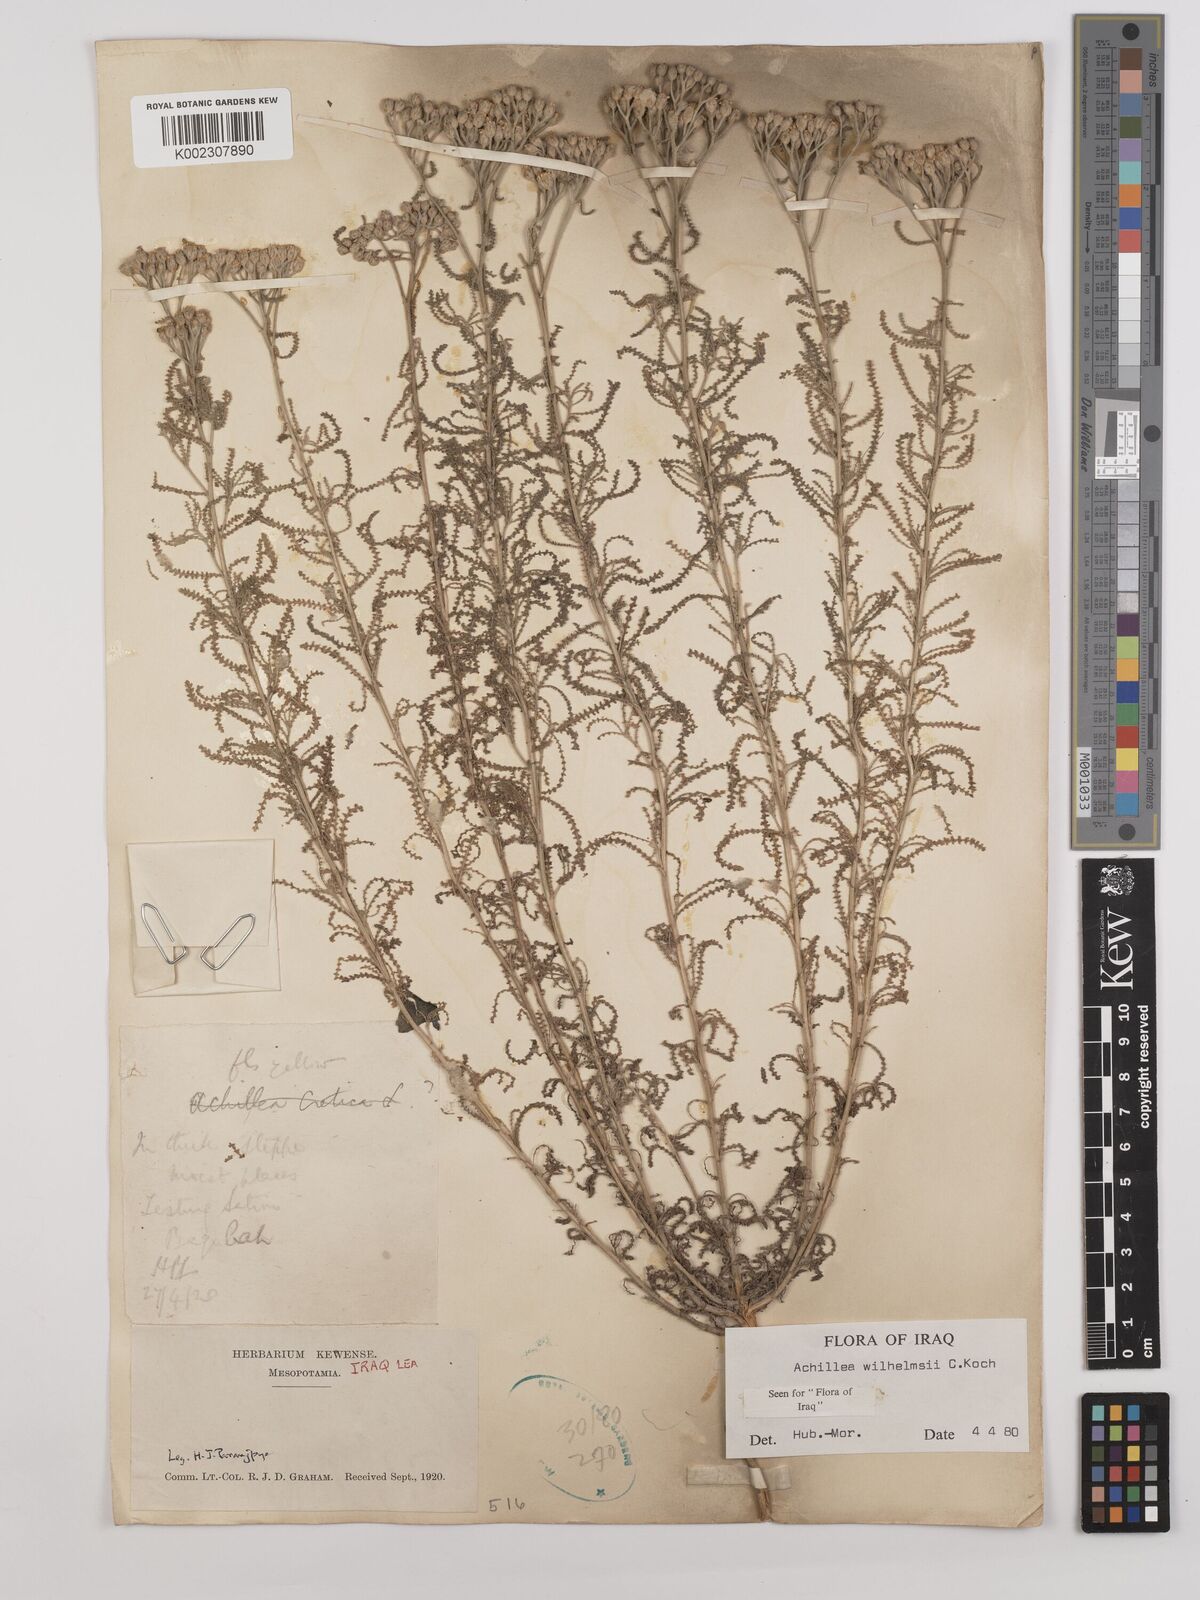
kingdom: Plantae
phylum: Tracheophyta
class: Magnoliopsida
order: Asterales
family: Asteraceae
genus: Achillea
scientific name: Achillea wilhelmsii
